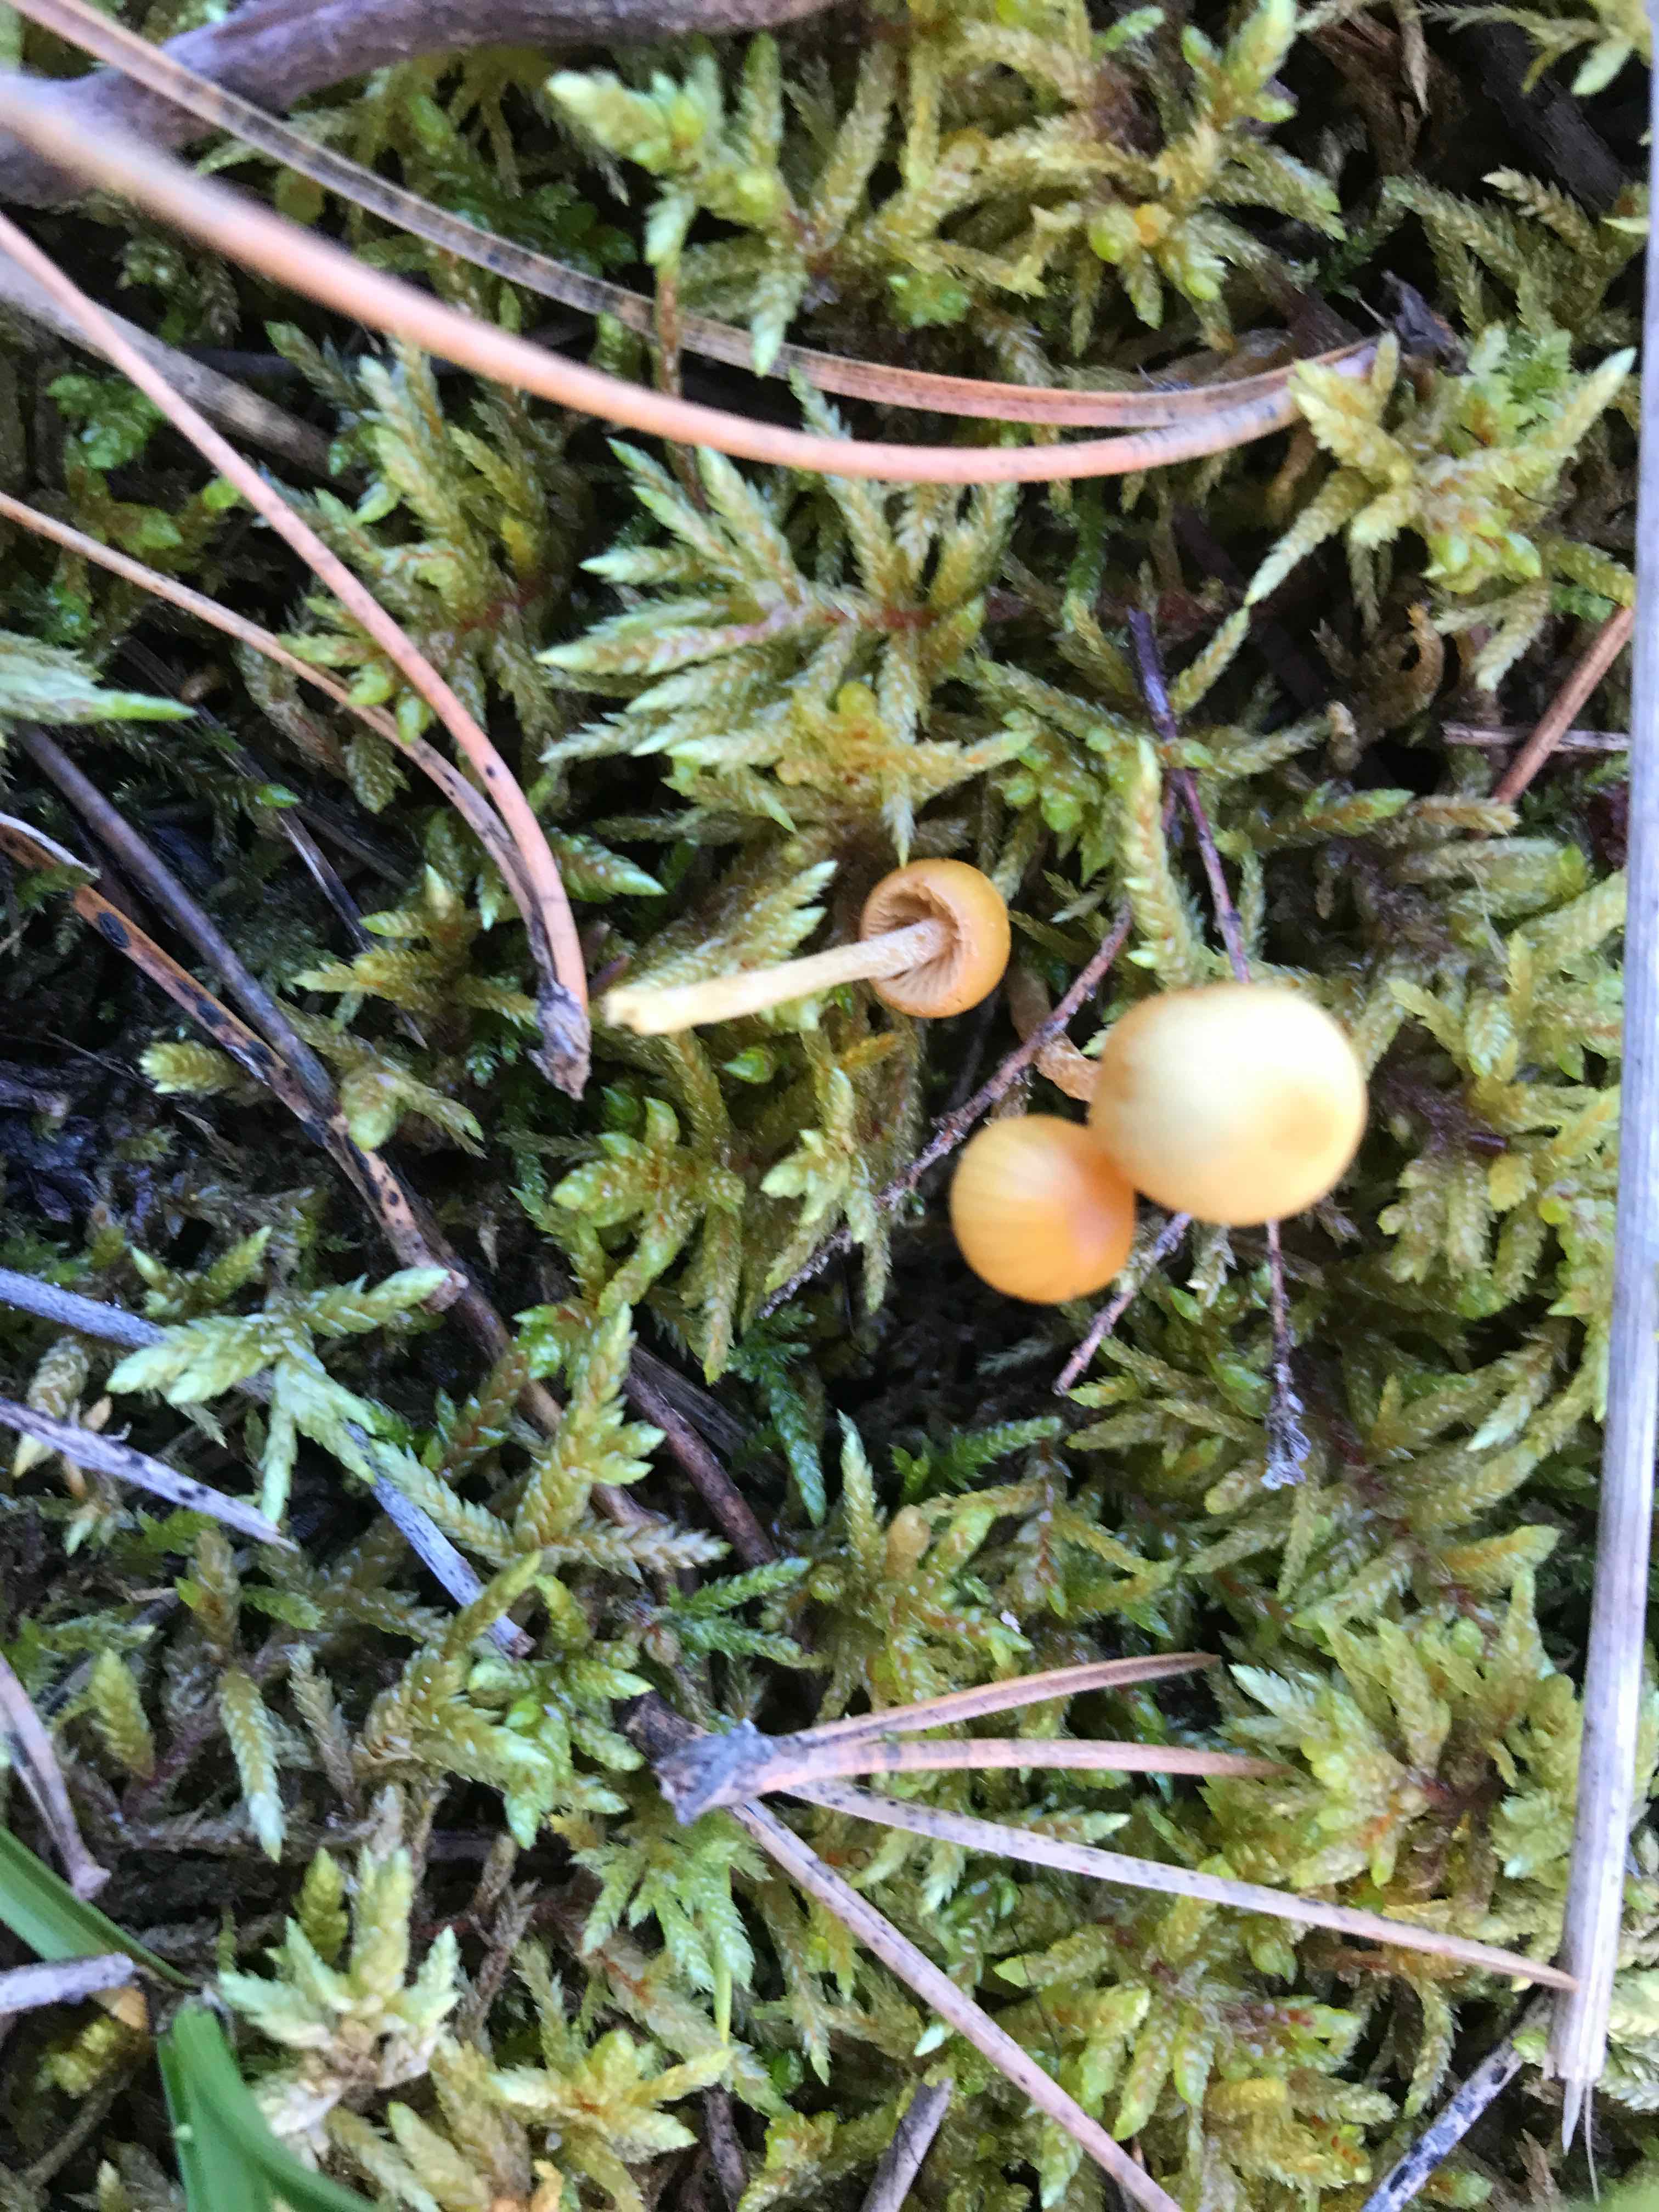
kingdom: Fungi
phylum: Basidiomycota
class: Agaricomycetes
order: Agaricales
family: Hymenogastraceae
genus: Galerina
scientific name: Galerina
